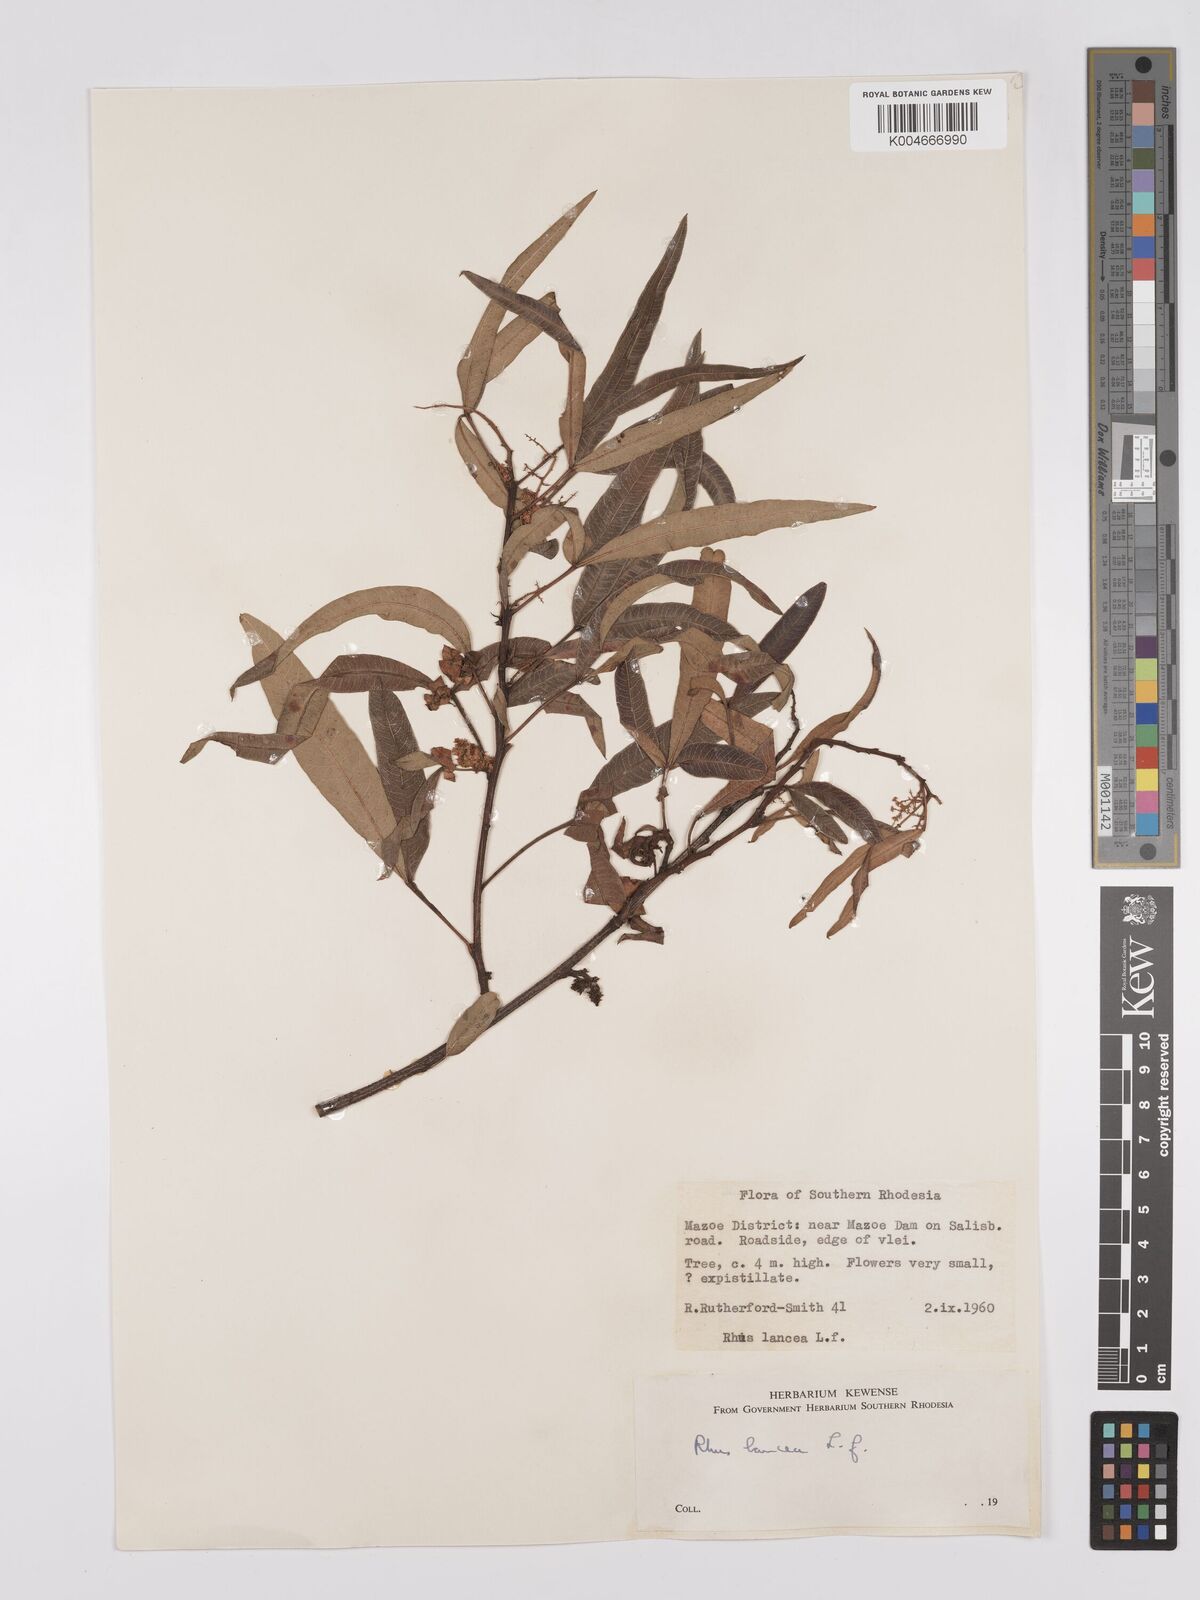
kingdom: Plantae
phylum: Tracheophyta
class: Magnoliopsida
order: Sapindales
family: Anacardiaceae
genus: Searsia
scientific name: Searsia lancea
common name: Cashew
